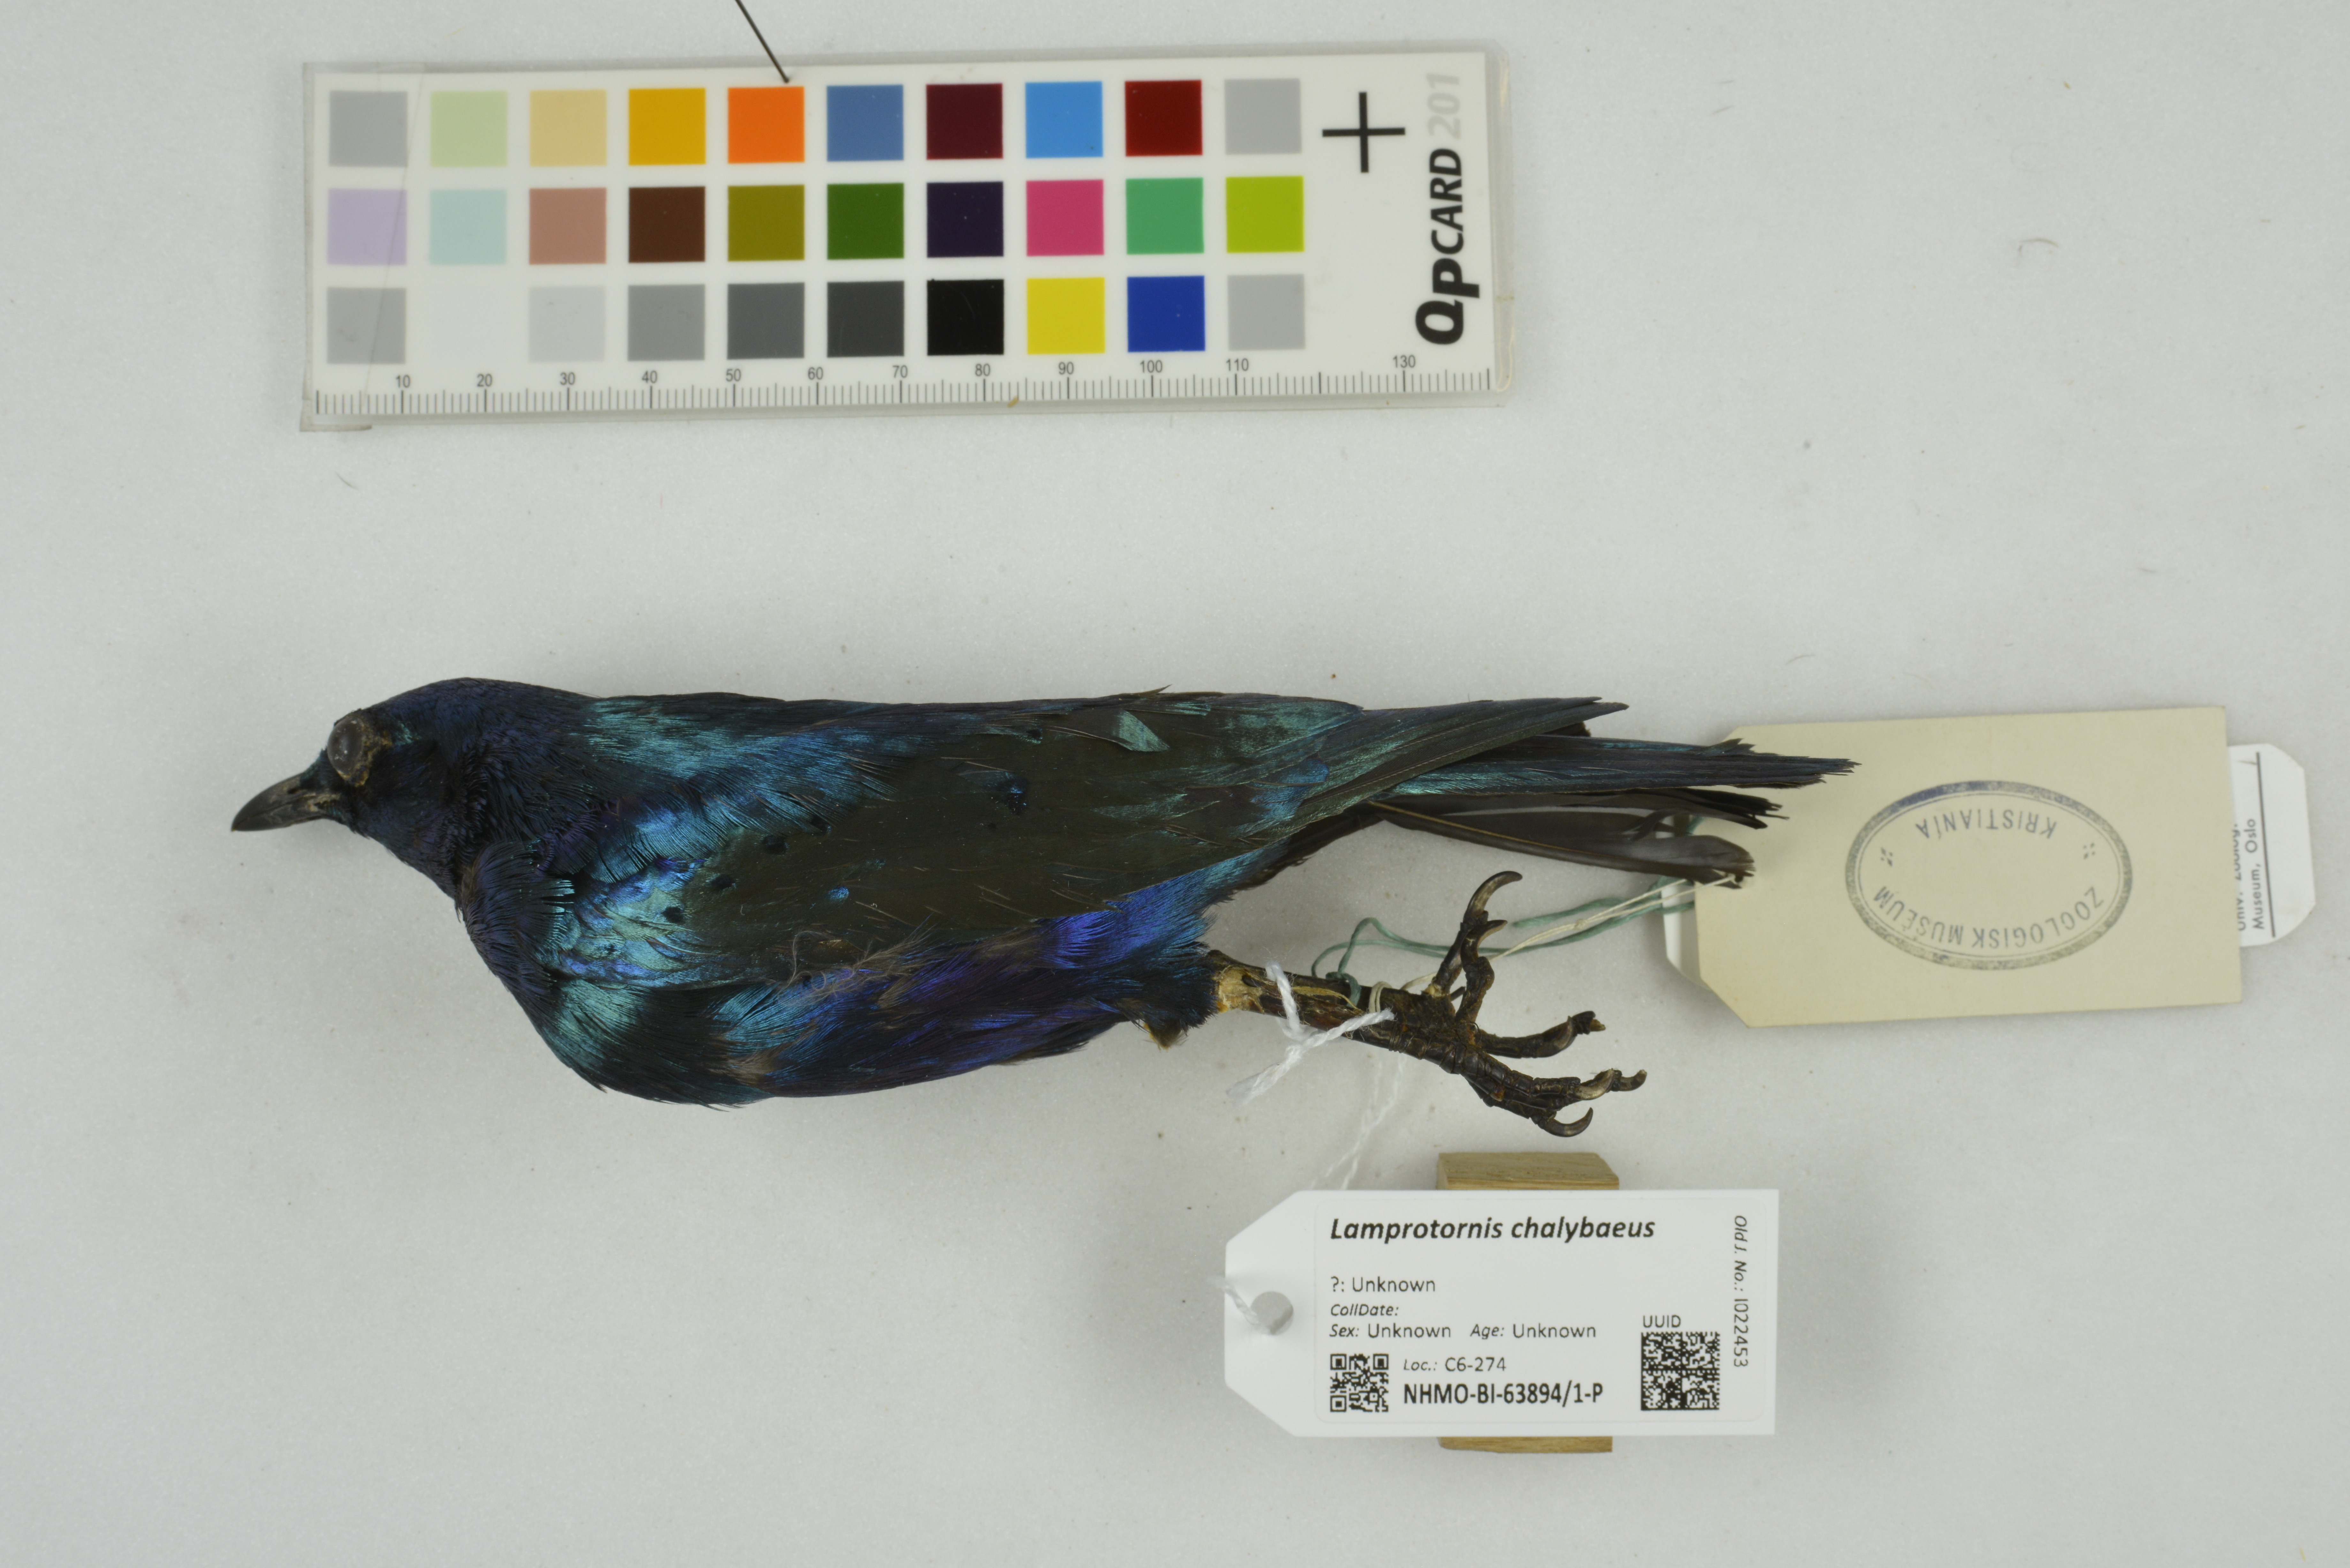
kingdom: Animalia
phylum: Chordata
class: Aves
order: Passeriformes
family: Sturnidae
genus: Lamprotornis
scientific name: Lamprotornis chalybaeus
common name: Greater blue-eared starling
